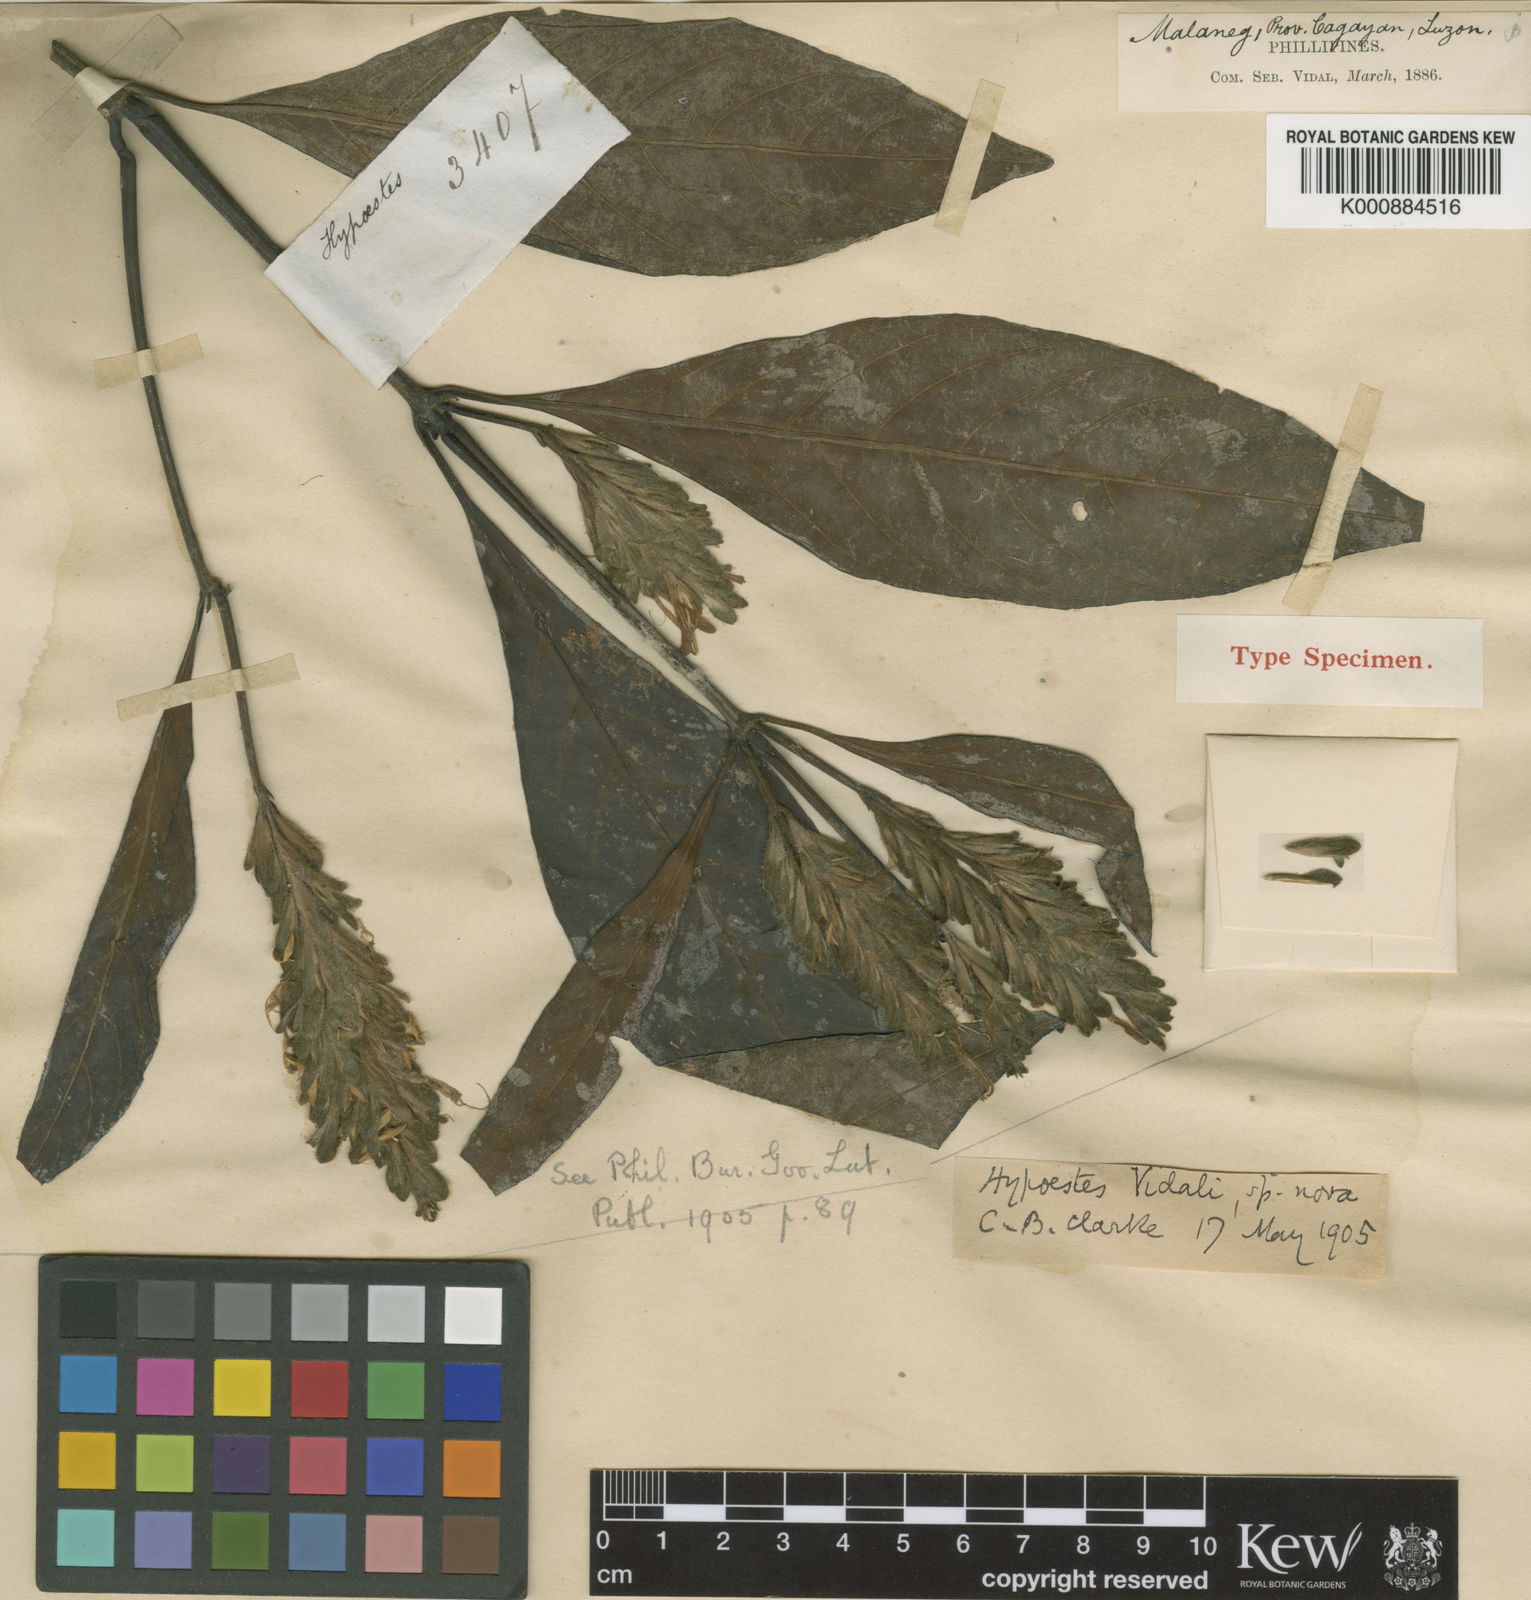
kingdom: Plantae
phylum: Tracheophyta
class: Magnoliopsida
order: Lamiales
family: Acanthaceae
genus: Hypoestes
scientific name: Hypoestes vidalii
